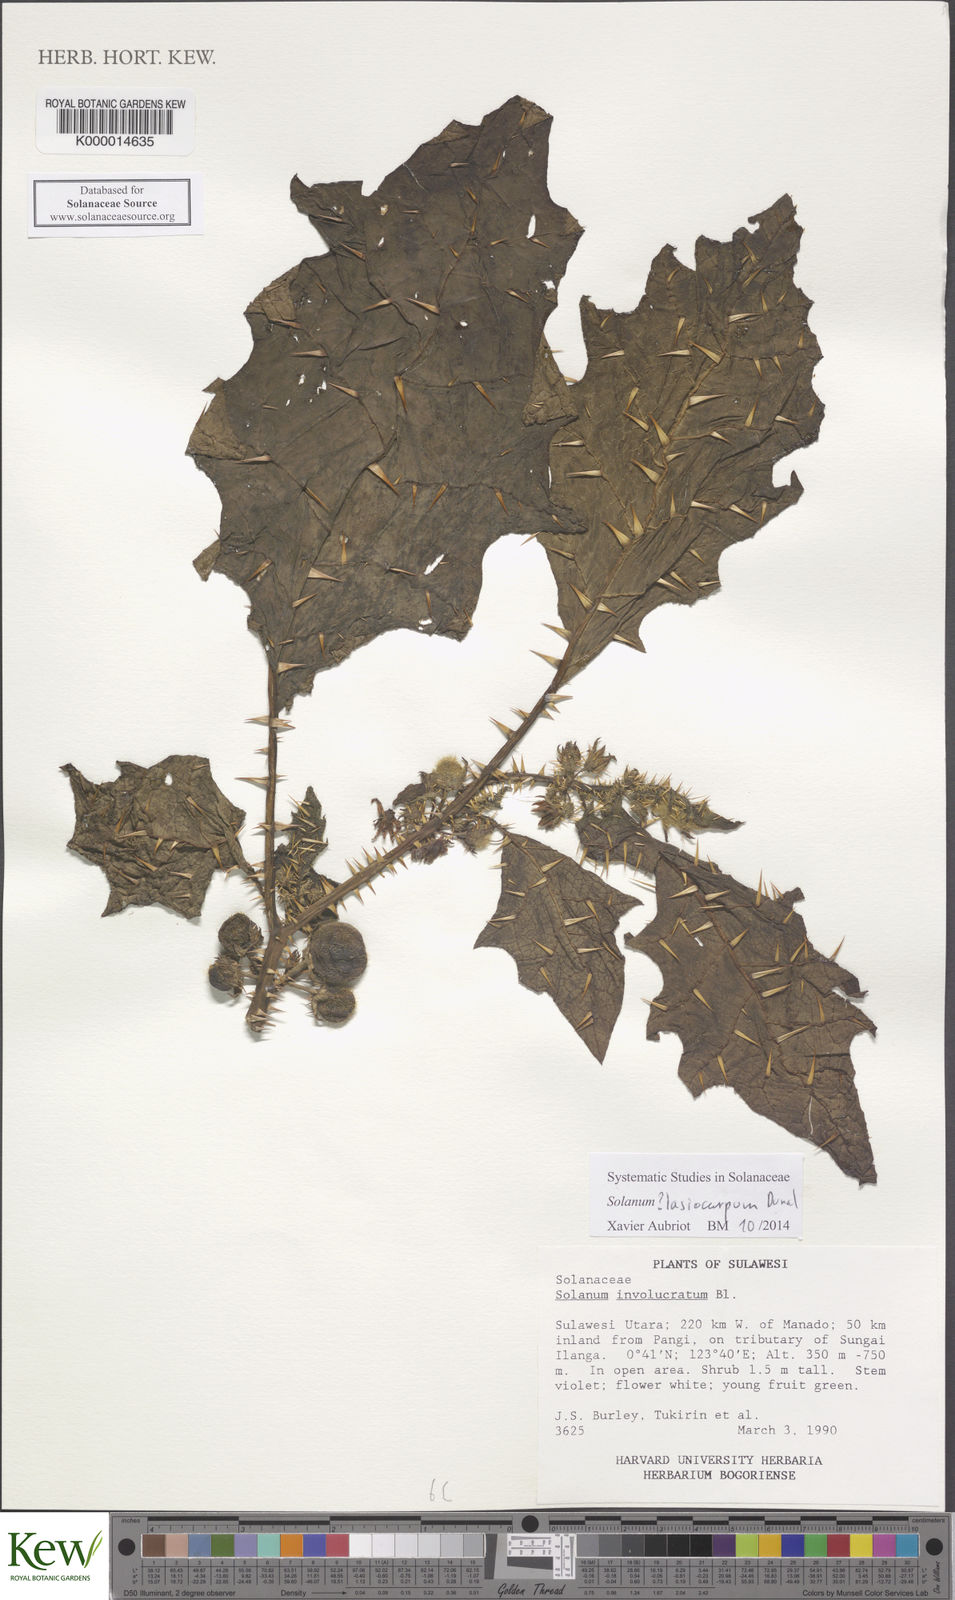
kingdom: Plantae
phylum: Tracheophyta
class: Magnoliopsida
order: Solanales
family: Solanaceae
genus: Solanum
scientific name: Solanum lasiocarpum
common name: Indian nightshade
